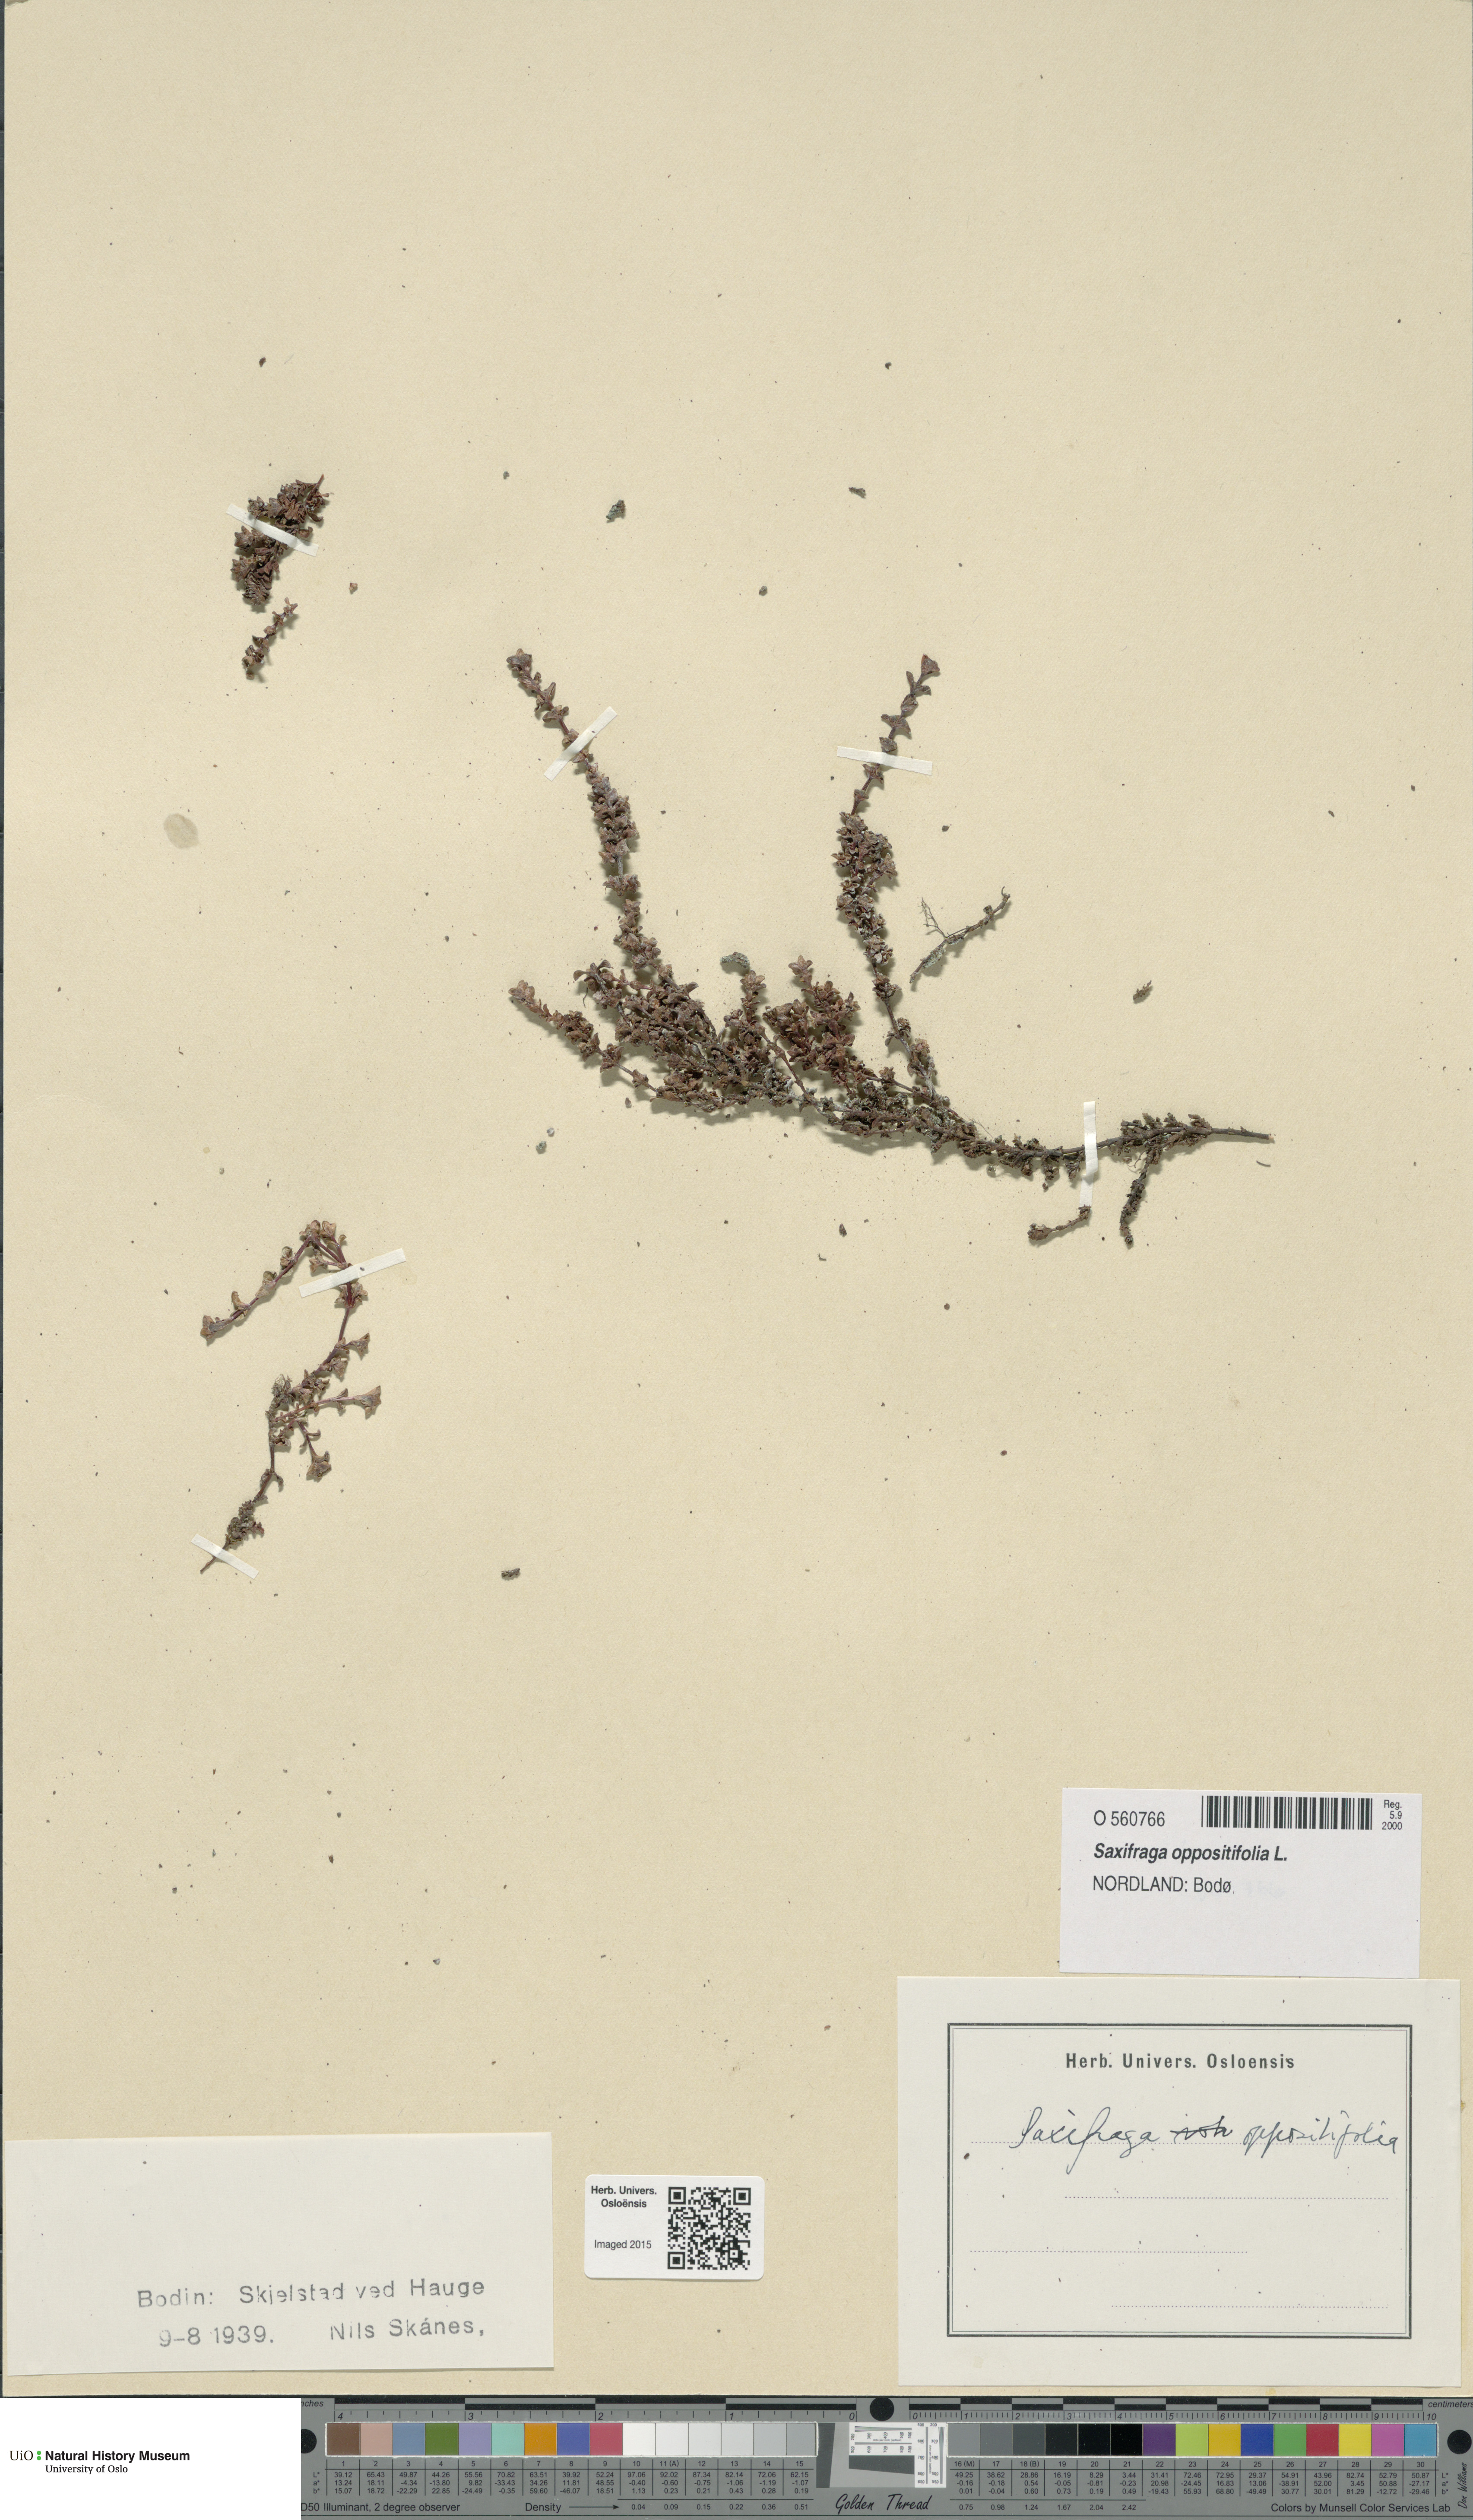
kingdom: Plantae
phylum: Tracheophyta
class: Magnoliopsida
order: Saxifragales
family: Saxifragaceae
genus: Saxifraga
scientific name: Saxifraga oppositifolia
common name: Purple saxifrage
